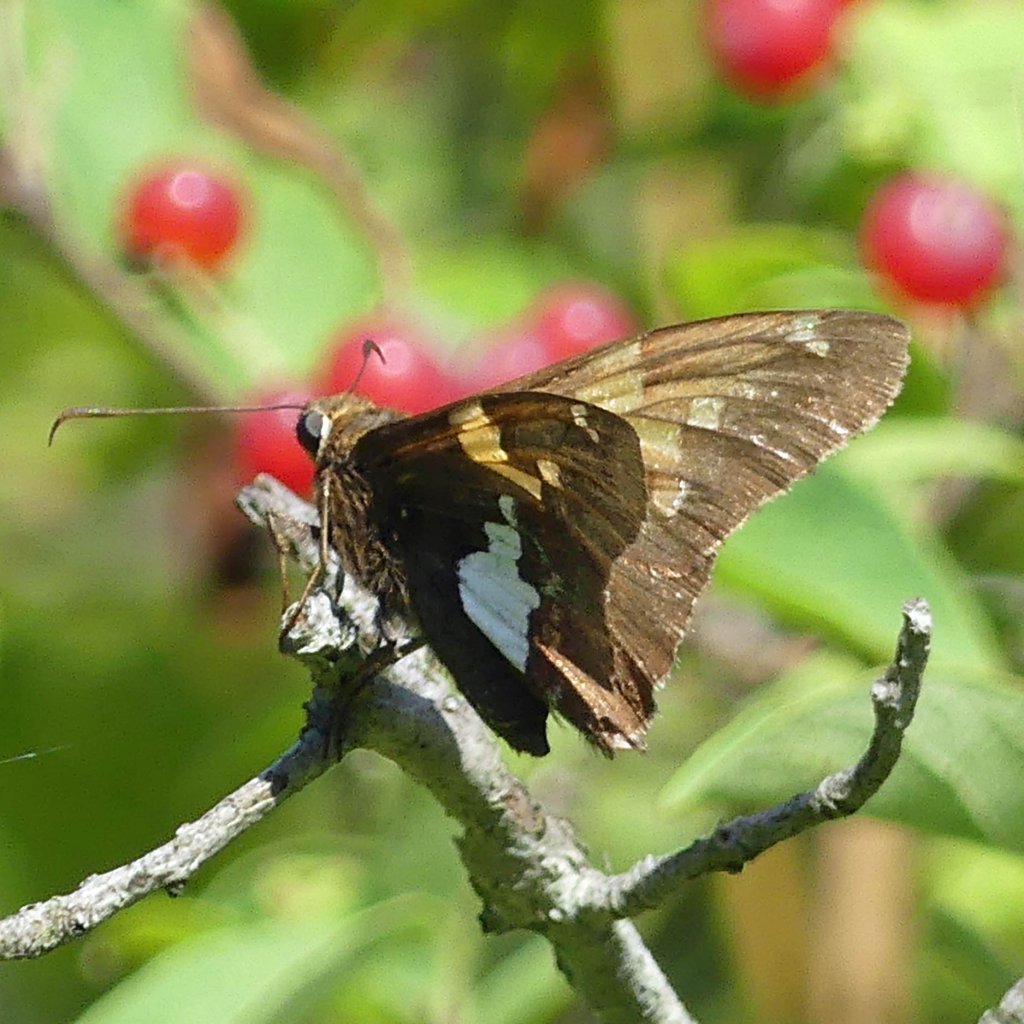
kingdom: Animalia
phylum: Arthropoda
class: Insecta
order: Lepidoptera
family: Hesperiidae
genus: Epargyreus
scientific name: Epargyreus clarus
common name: Silver-spotted Skipper
